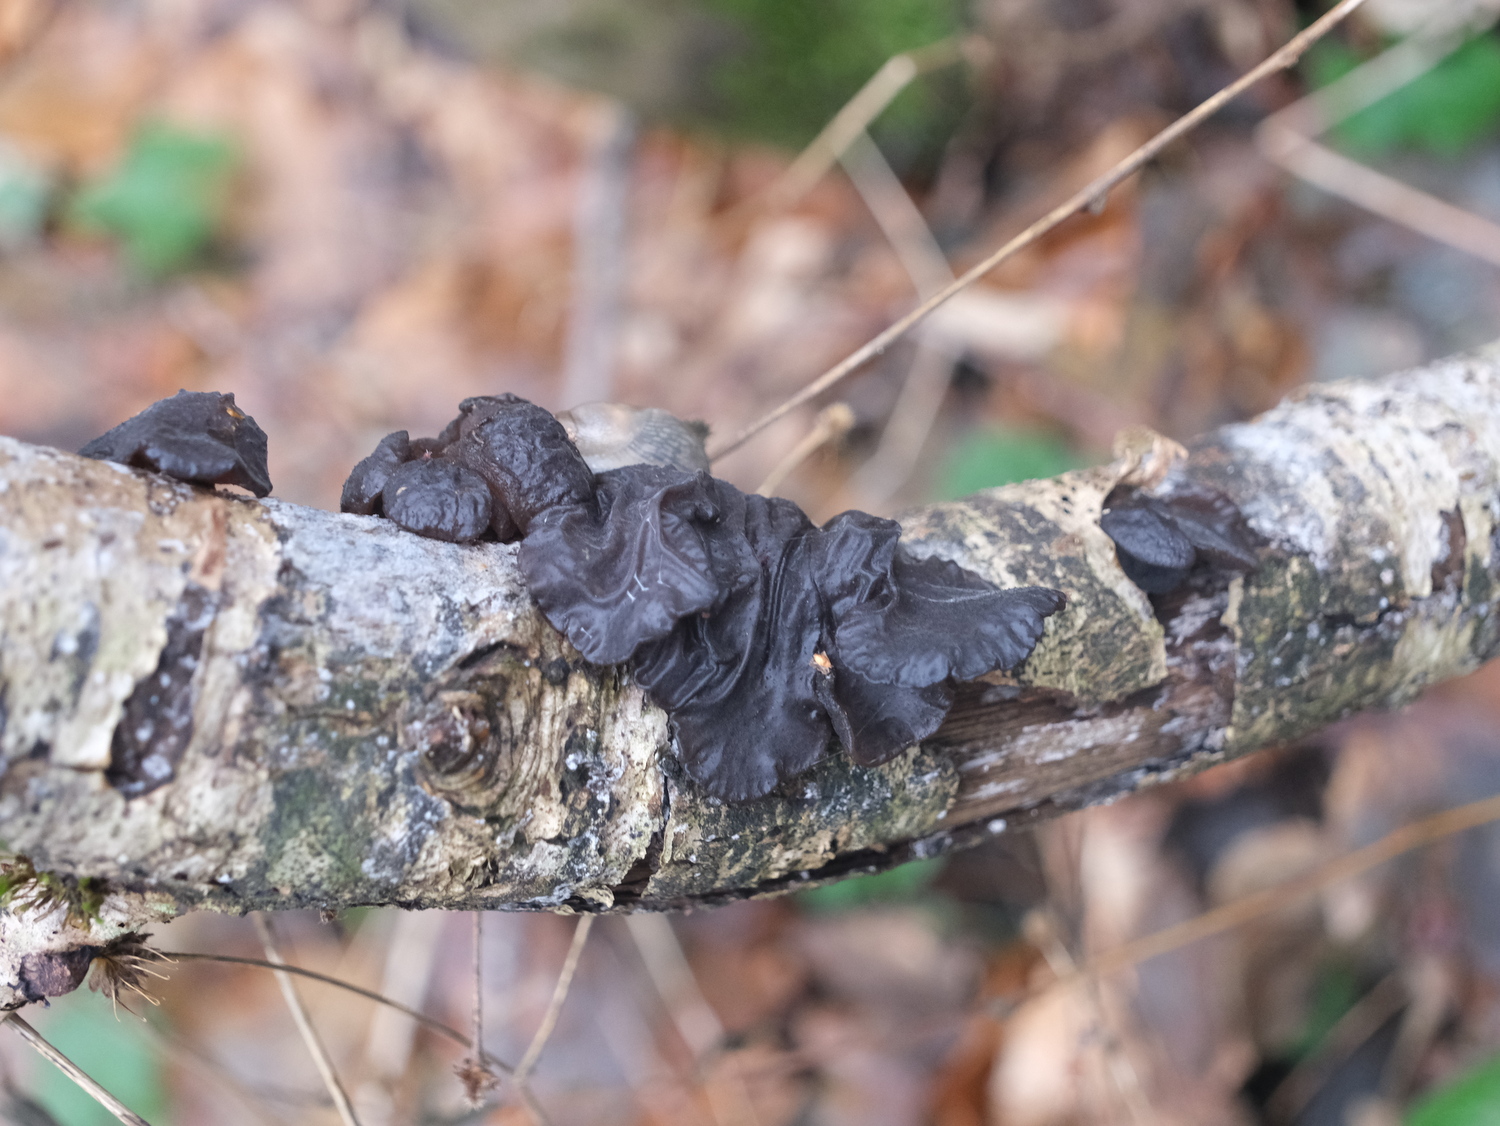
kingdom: Fungi
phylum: Basidiomycota
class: Agaricomycetes
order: Auriculariales
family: Auriculariaceae
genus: Exidia
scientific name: Exidia glandulosa
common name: ege-bævretop
